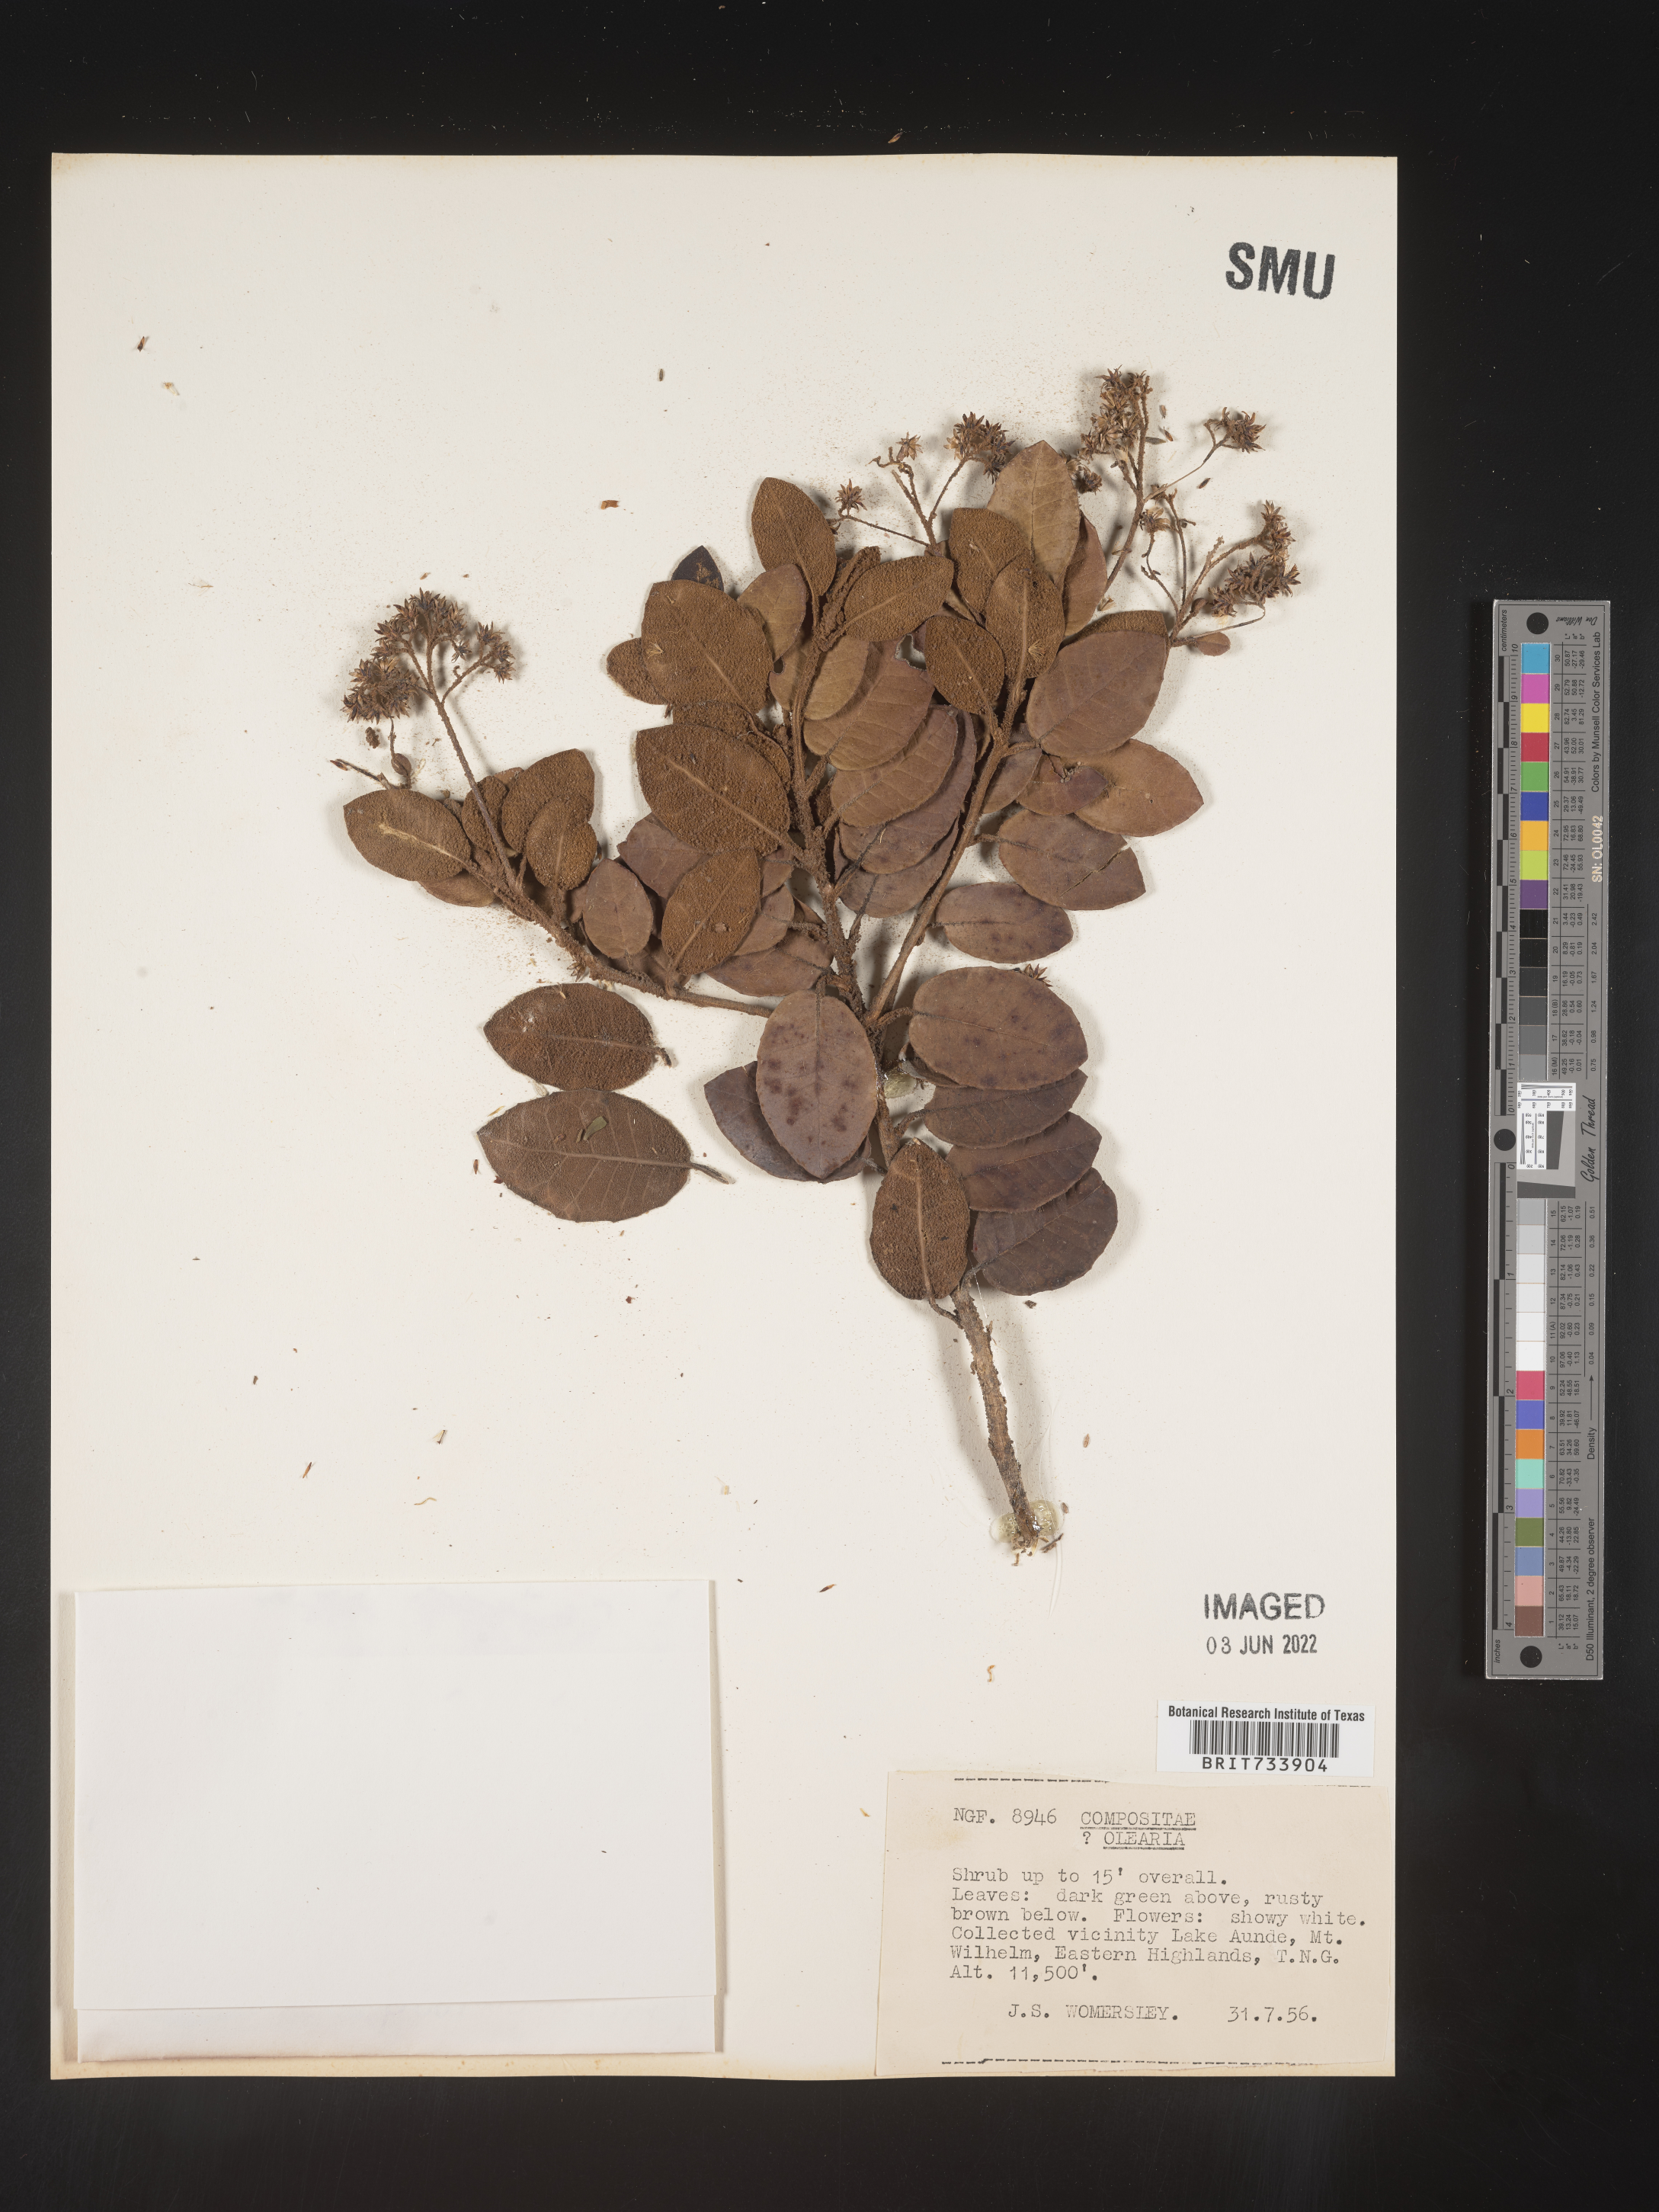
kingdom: Plantae
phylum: Tracheophyta
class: Magnoliopsida
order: Asterales
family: Asteraceae
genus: Olearia
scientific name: Olearia
